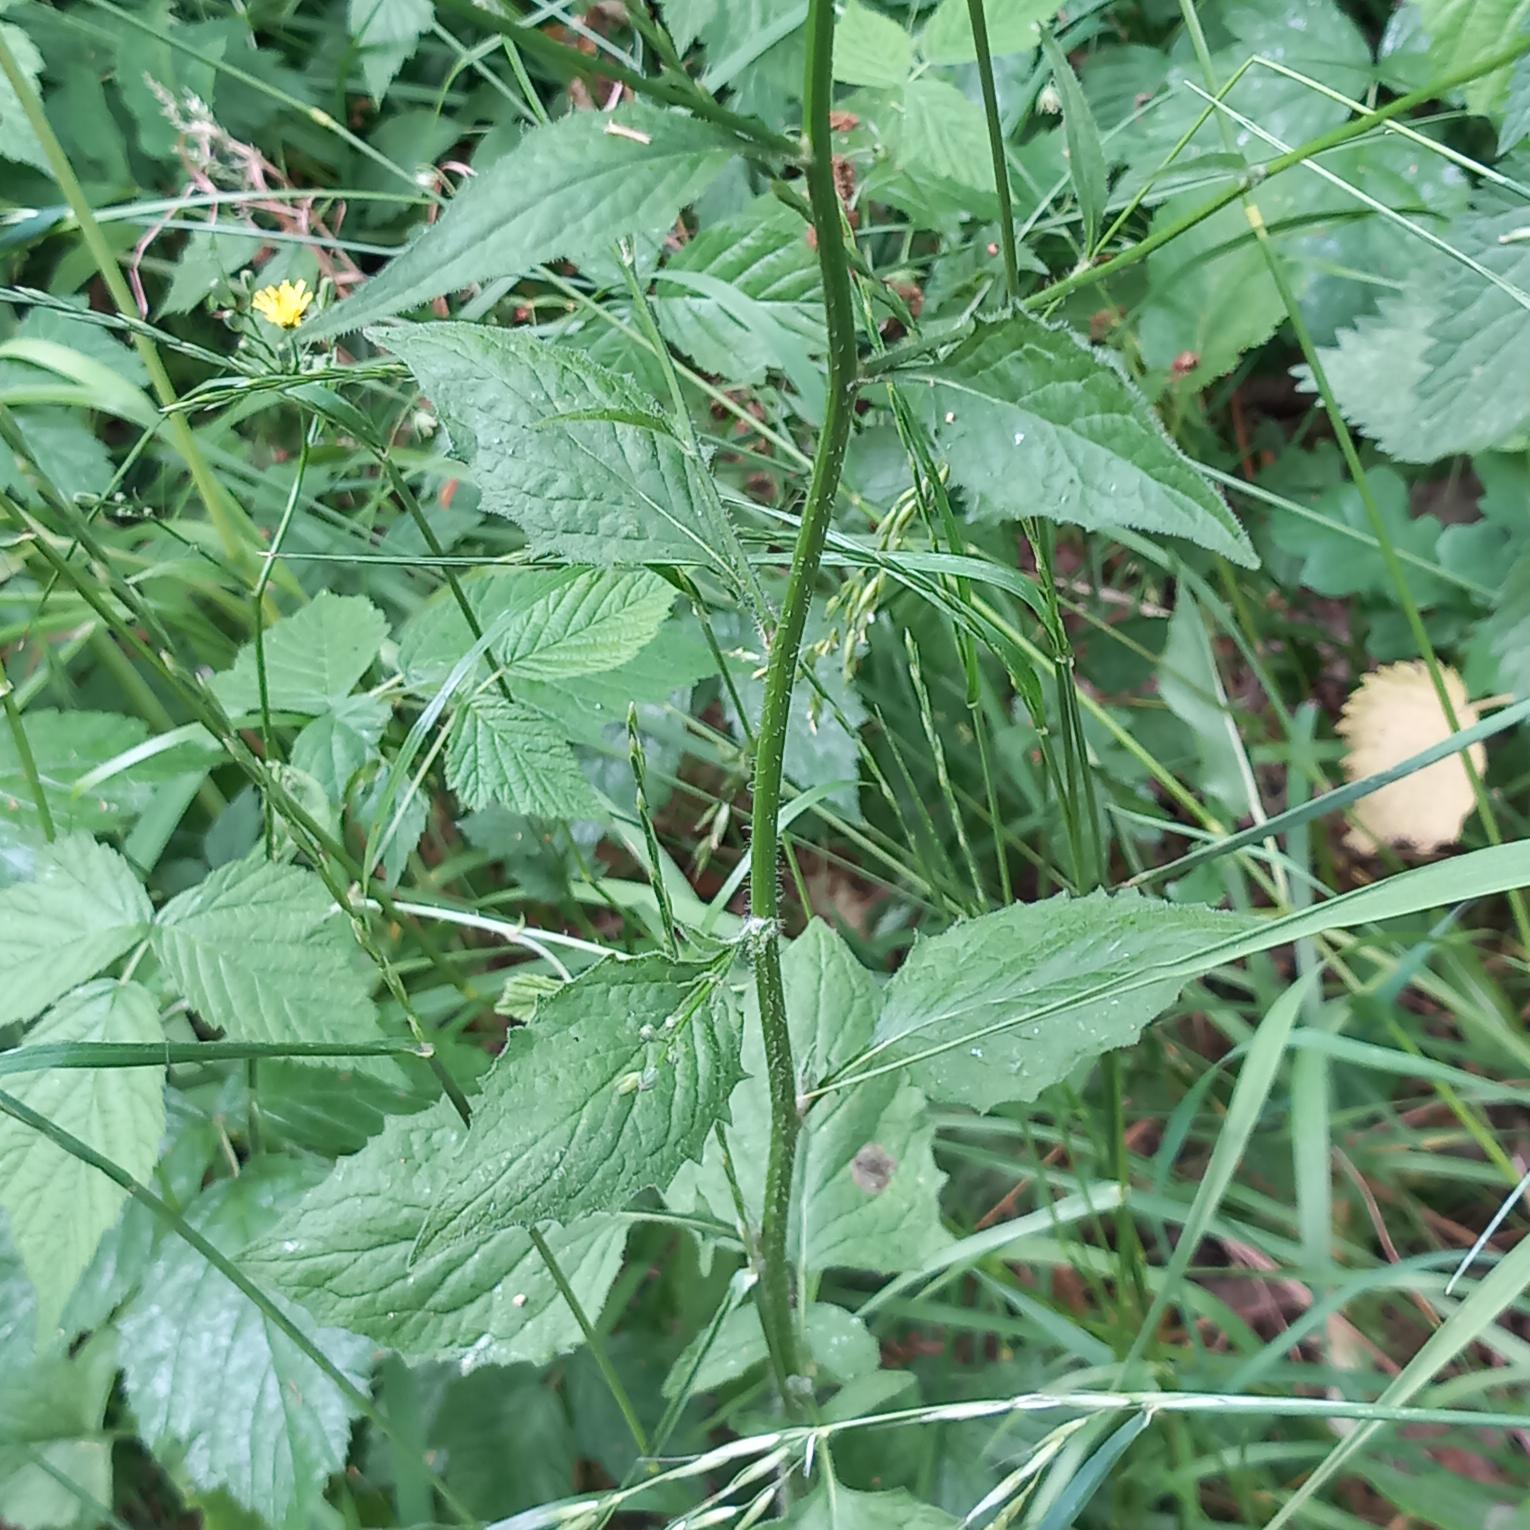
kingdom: Plantae
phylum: Tracheophyta
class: Magnoliopsida
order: Asterales
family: Asteraceae
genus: Lapsana
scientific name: Lapsana communis
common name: Haremad
